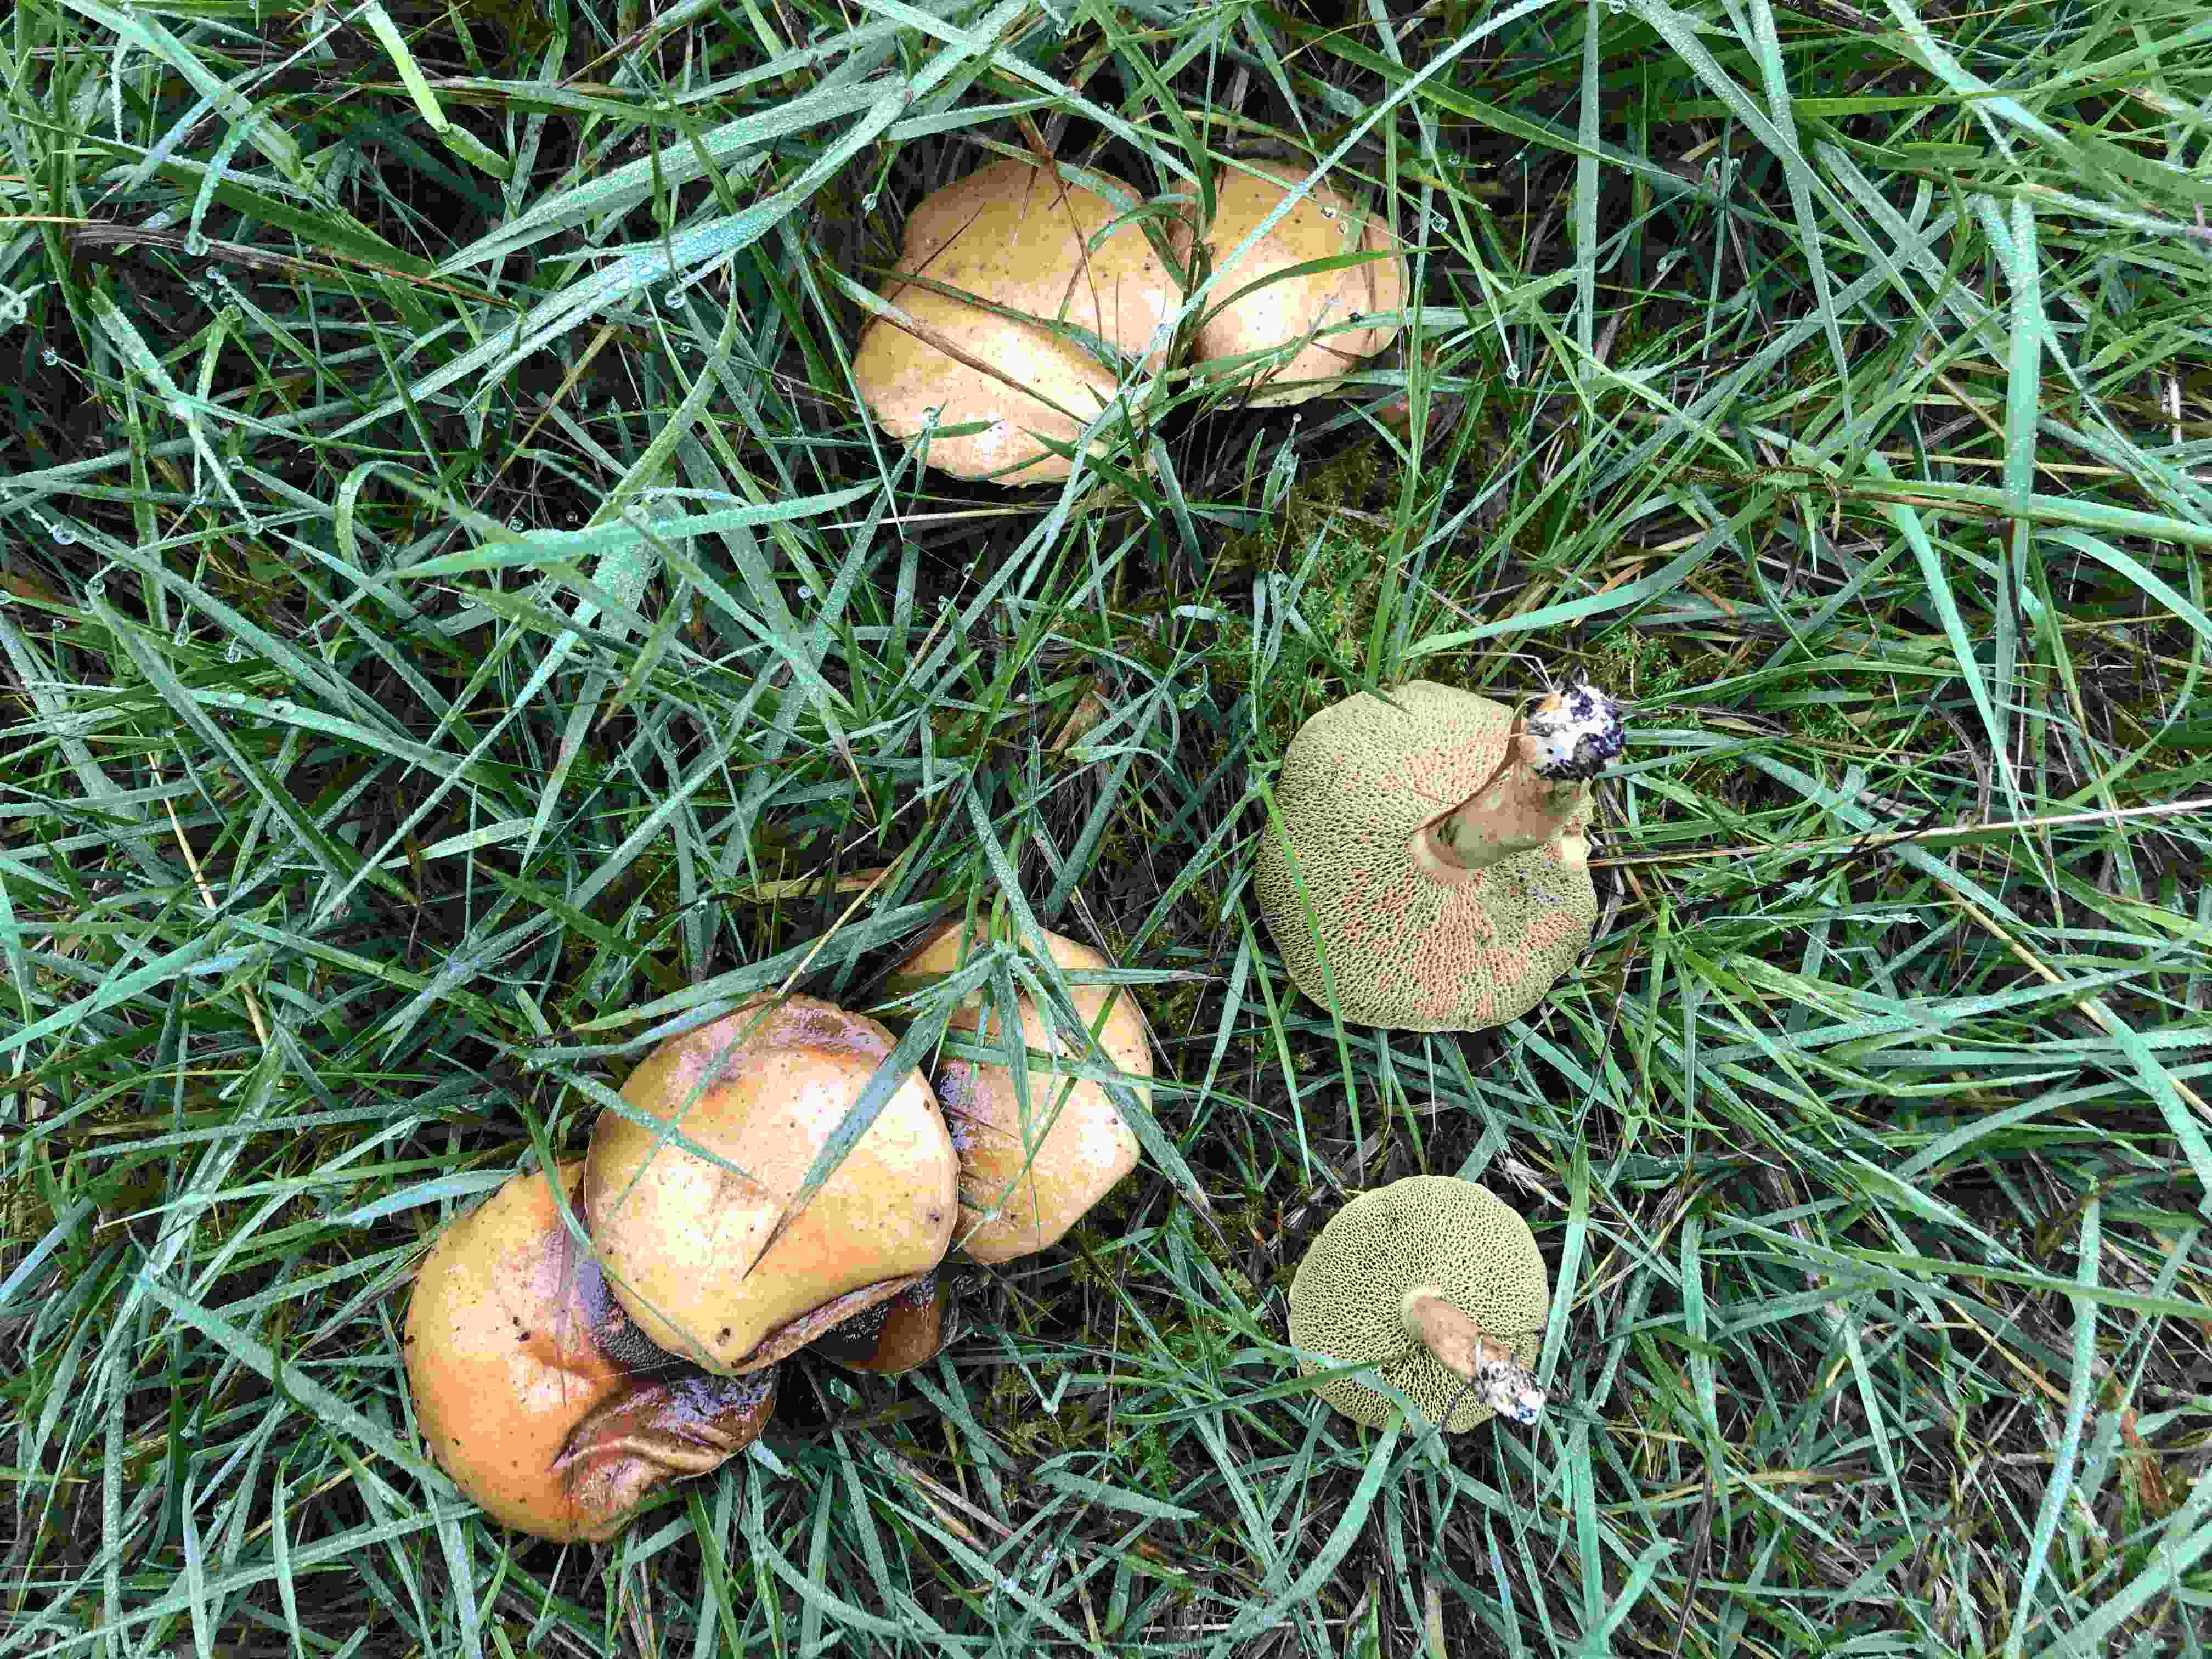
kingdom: Fungi
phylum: Basidiomycota
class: Agaricomycetes
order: Boletales
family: Suillaceae
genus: Suillus
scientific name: Suillus bovinus
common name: grovporet slimrørhat
